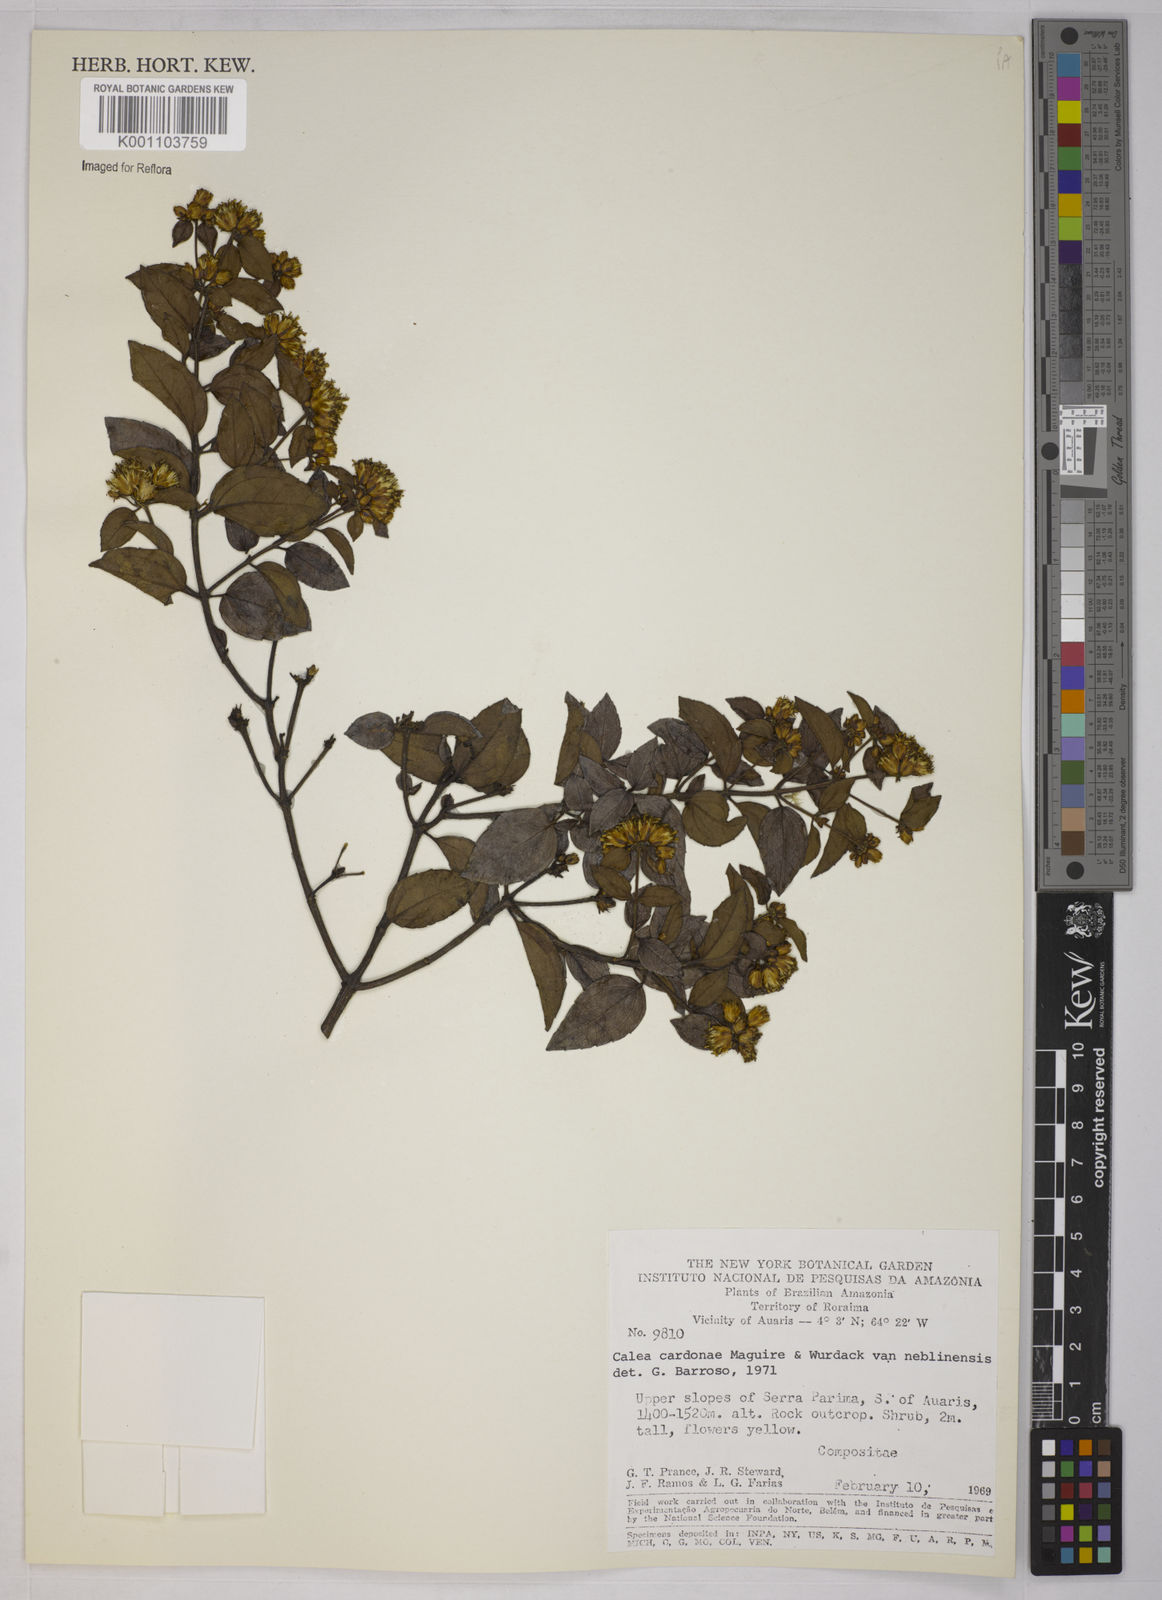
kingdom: Plantae
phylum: Tracheophyta
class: Magnoliopsida
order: Asterales
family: Asteraceae
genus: Calea
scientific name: Calea lucidivenia
